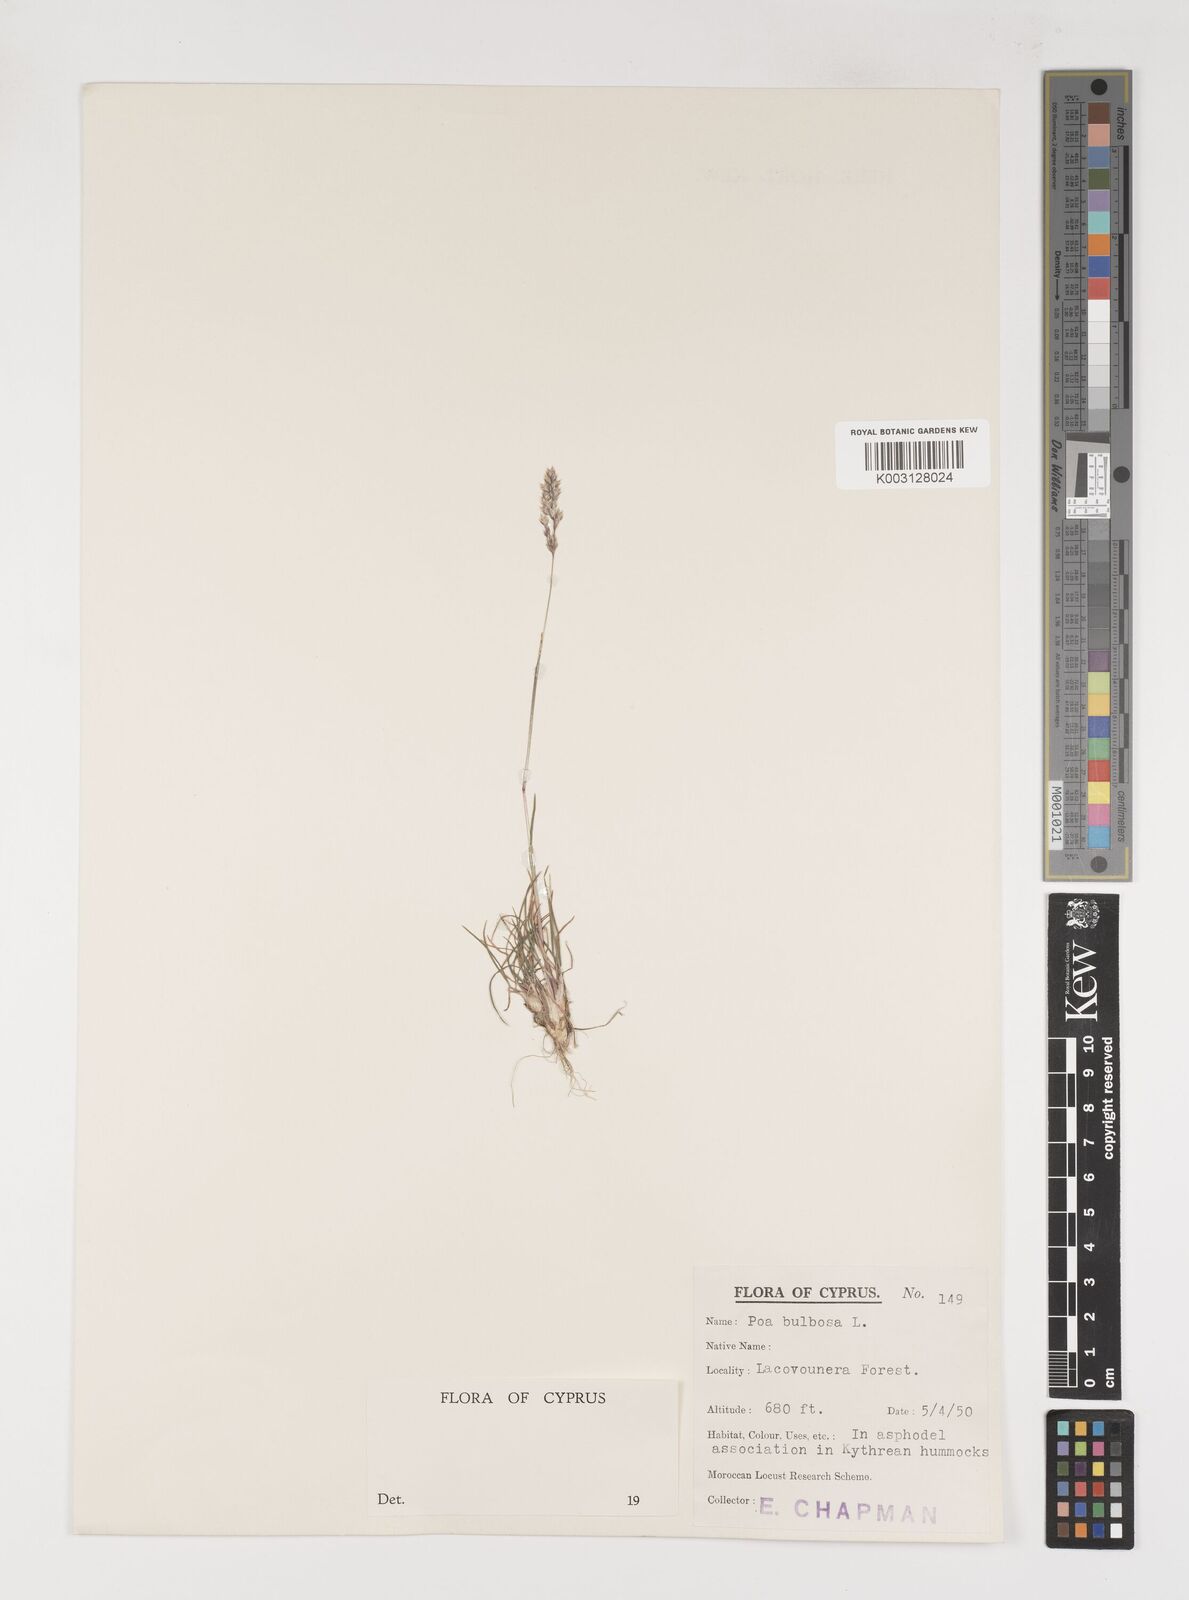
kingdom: Plantae
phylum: Tracheophyta
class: Liliopsida
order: Poales
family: Poaceae
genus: Poa
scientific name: Poa bulbosa
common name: Bulbous bluegrass
